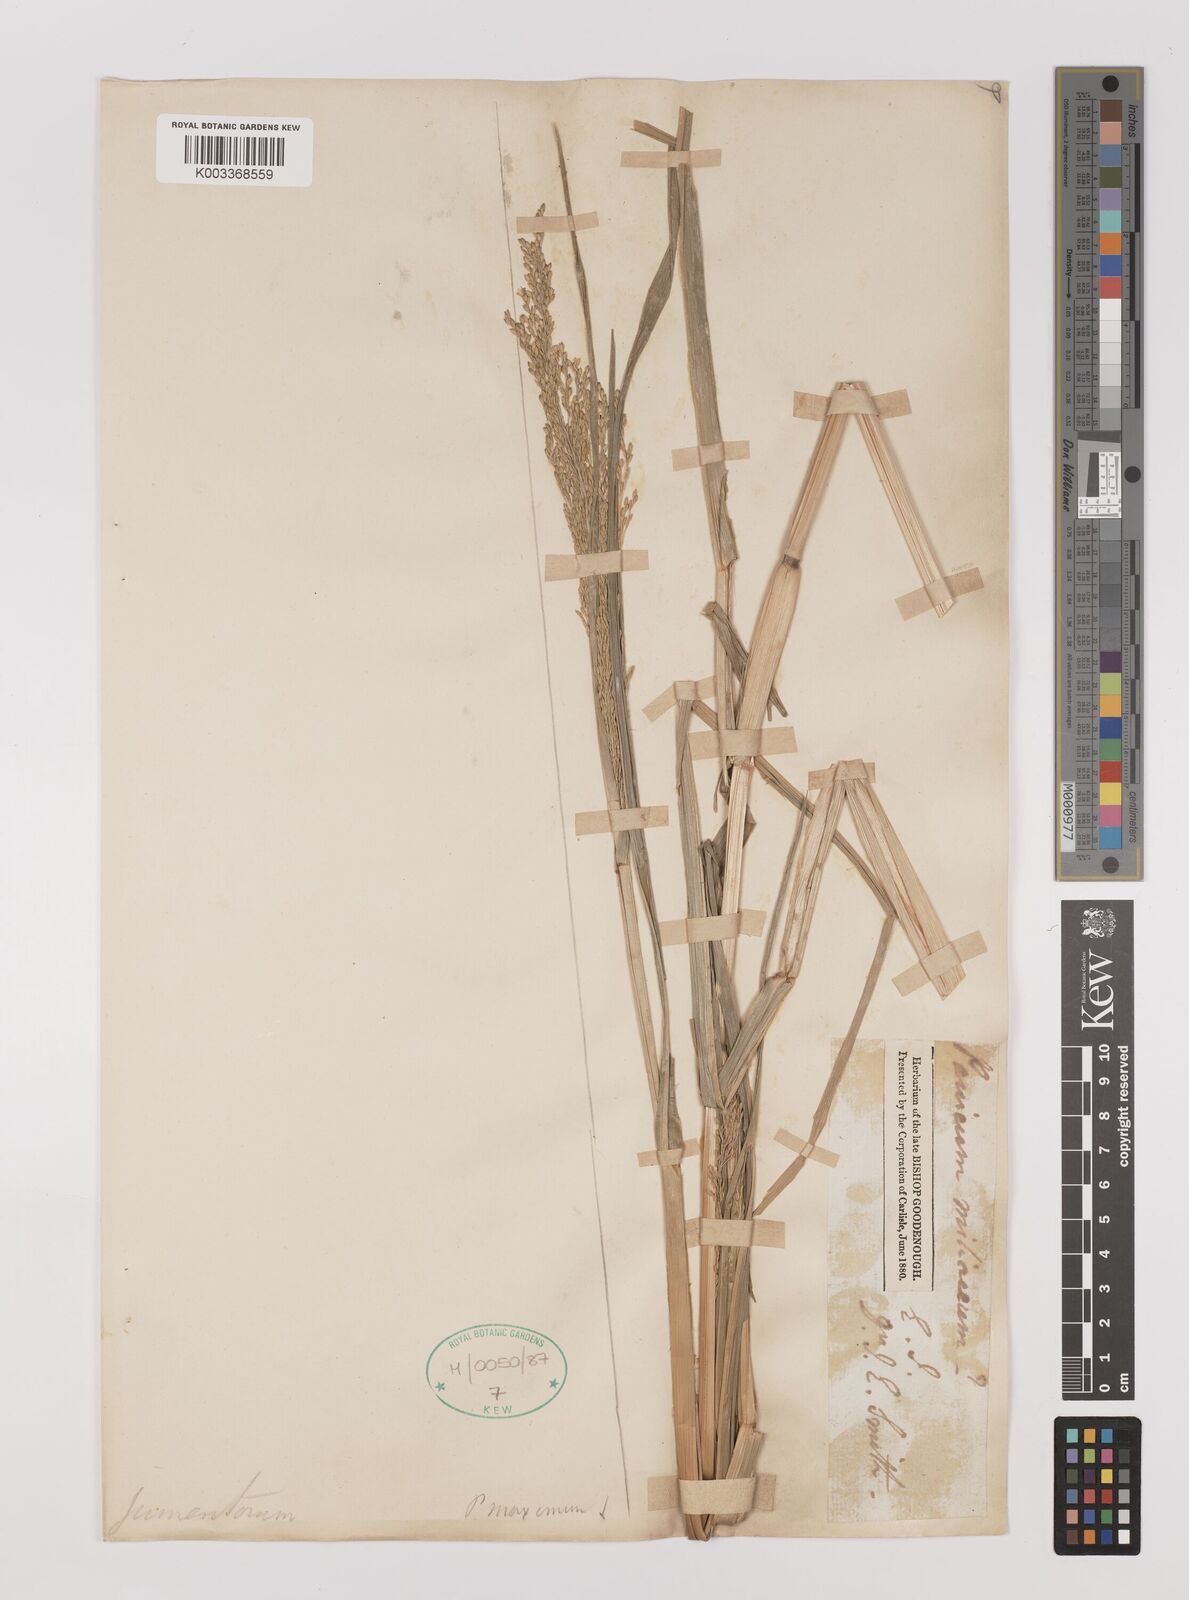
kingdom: Plantae
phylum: Tracheophyta
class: Liliopsida
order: Poales
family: Poaceae
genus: Panicum
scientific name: Panicum sumatrense
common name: Little millet
